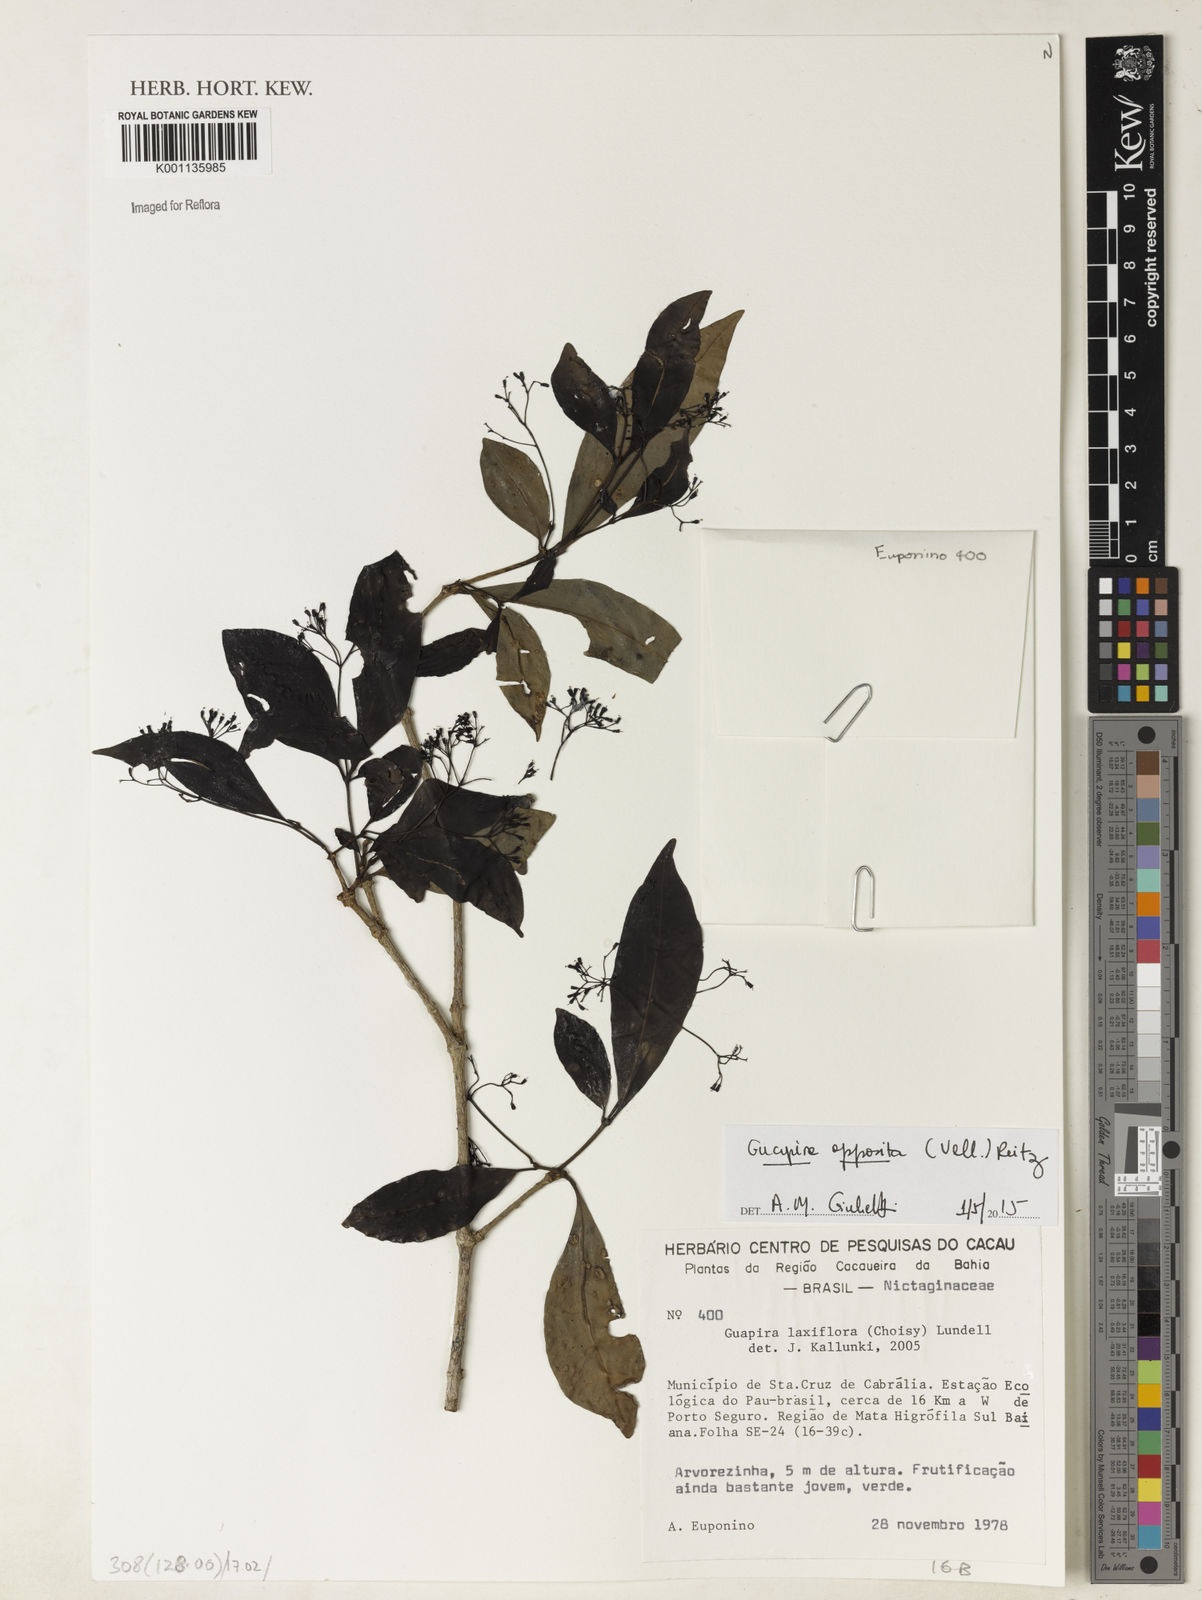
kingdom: Plantae
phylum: Tracheophyta
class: Magnoliopsida
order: Caryophyllales
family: Nyctaginaceae
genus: Guapira
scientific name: Guapira opposita
